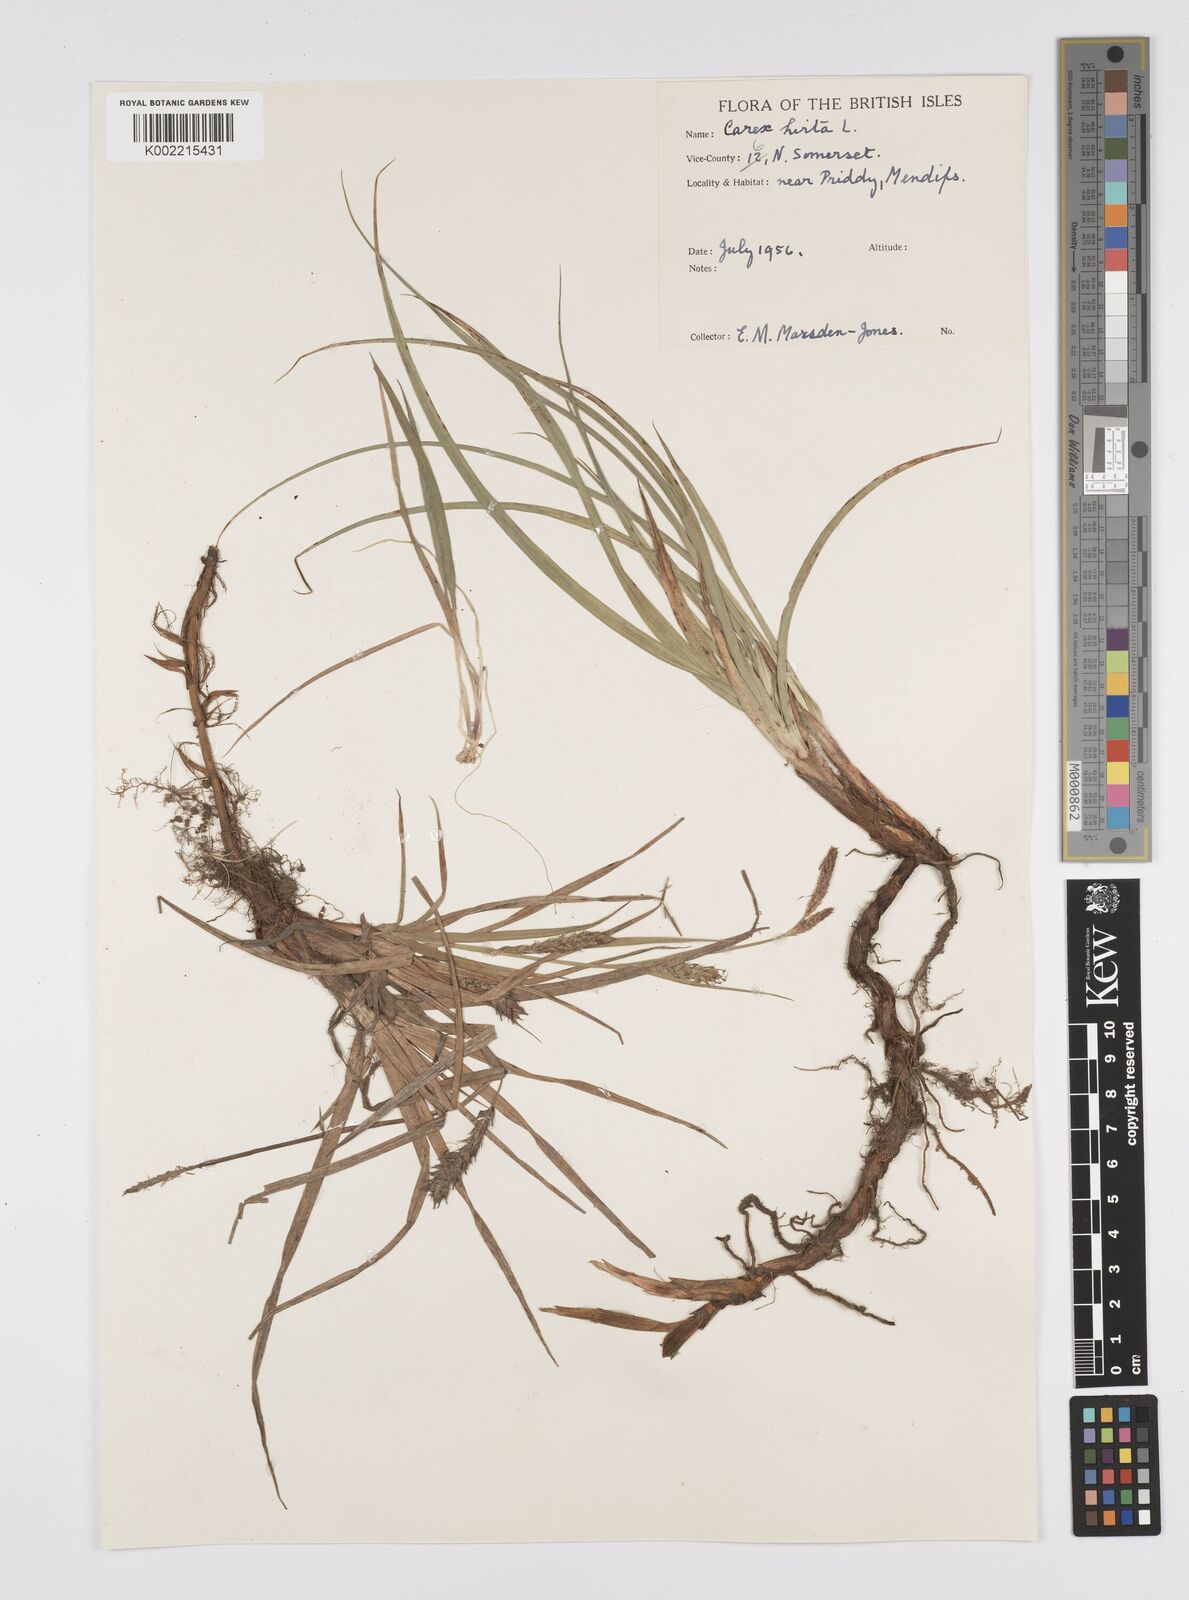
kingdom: Plantae
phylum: Tracheophyta
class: Liliopsida
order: Poales
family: Cyperaceae
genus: Carex
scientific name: Carex hirta
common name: Hairy sedge
